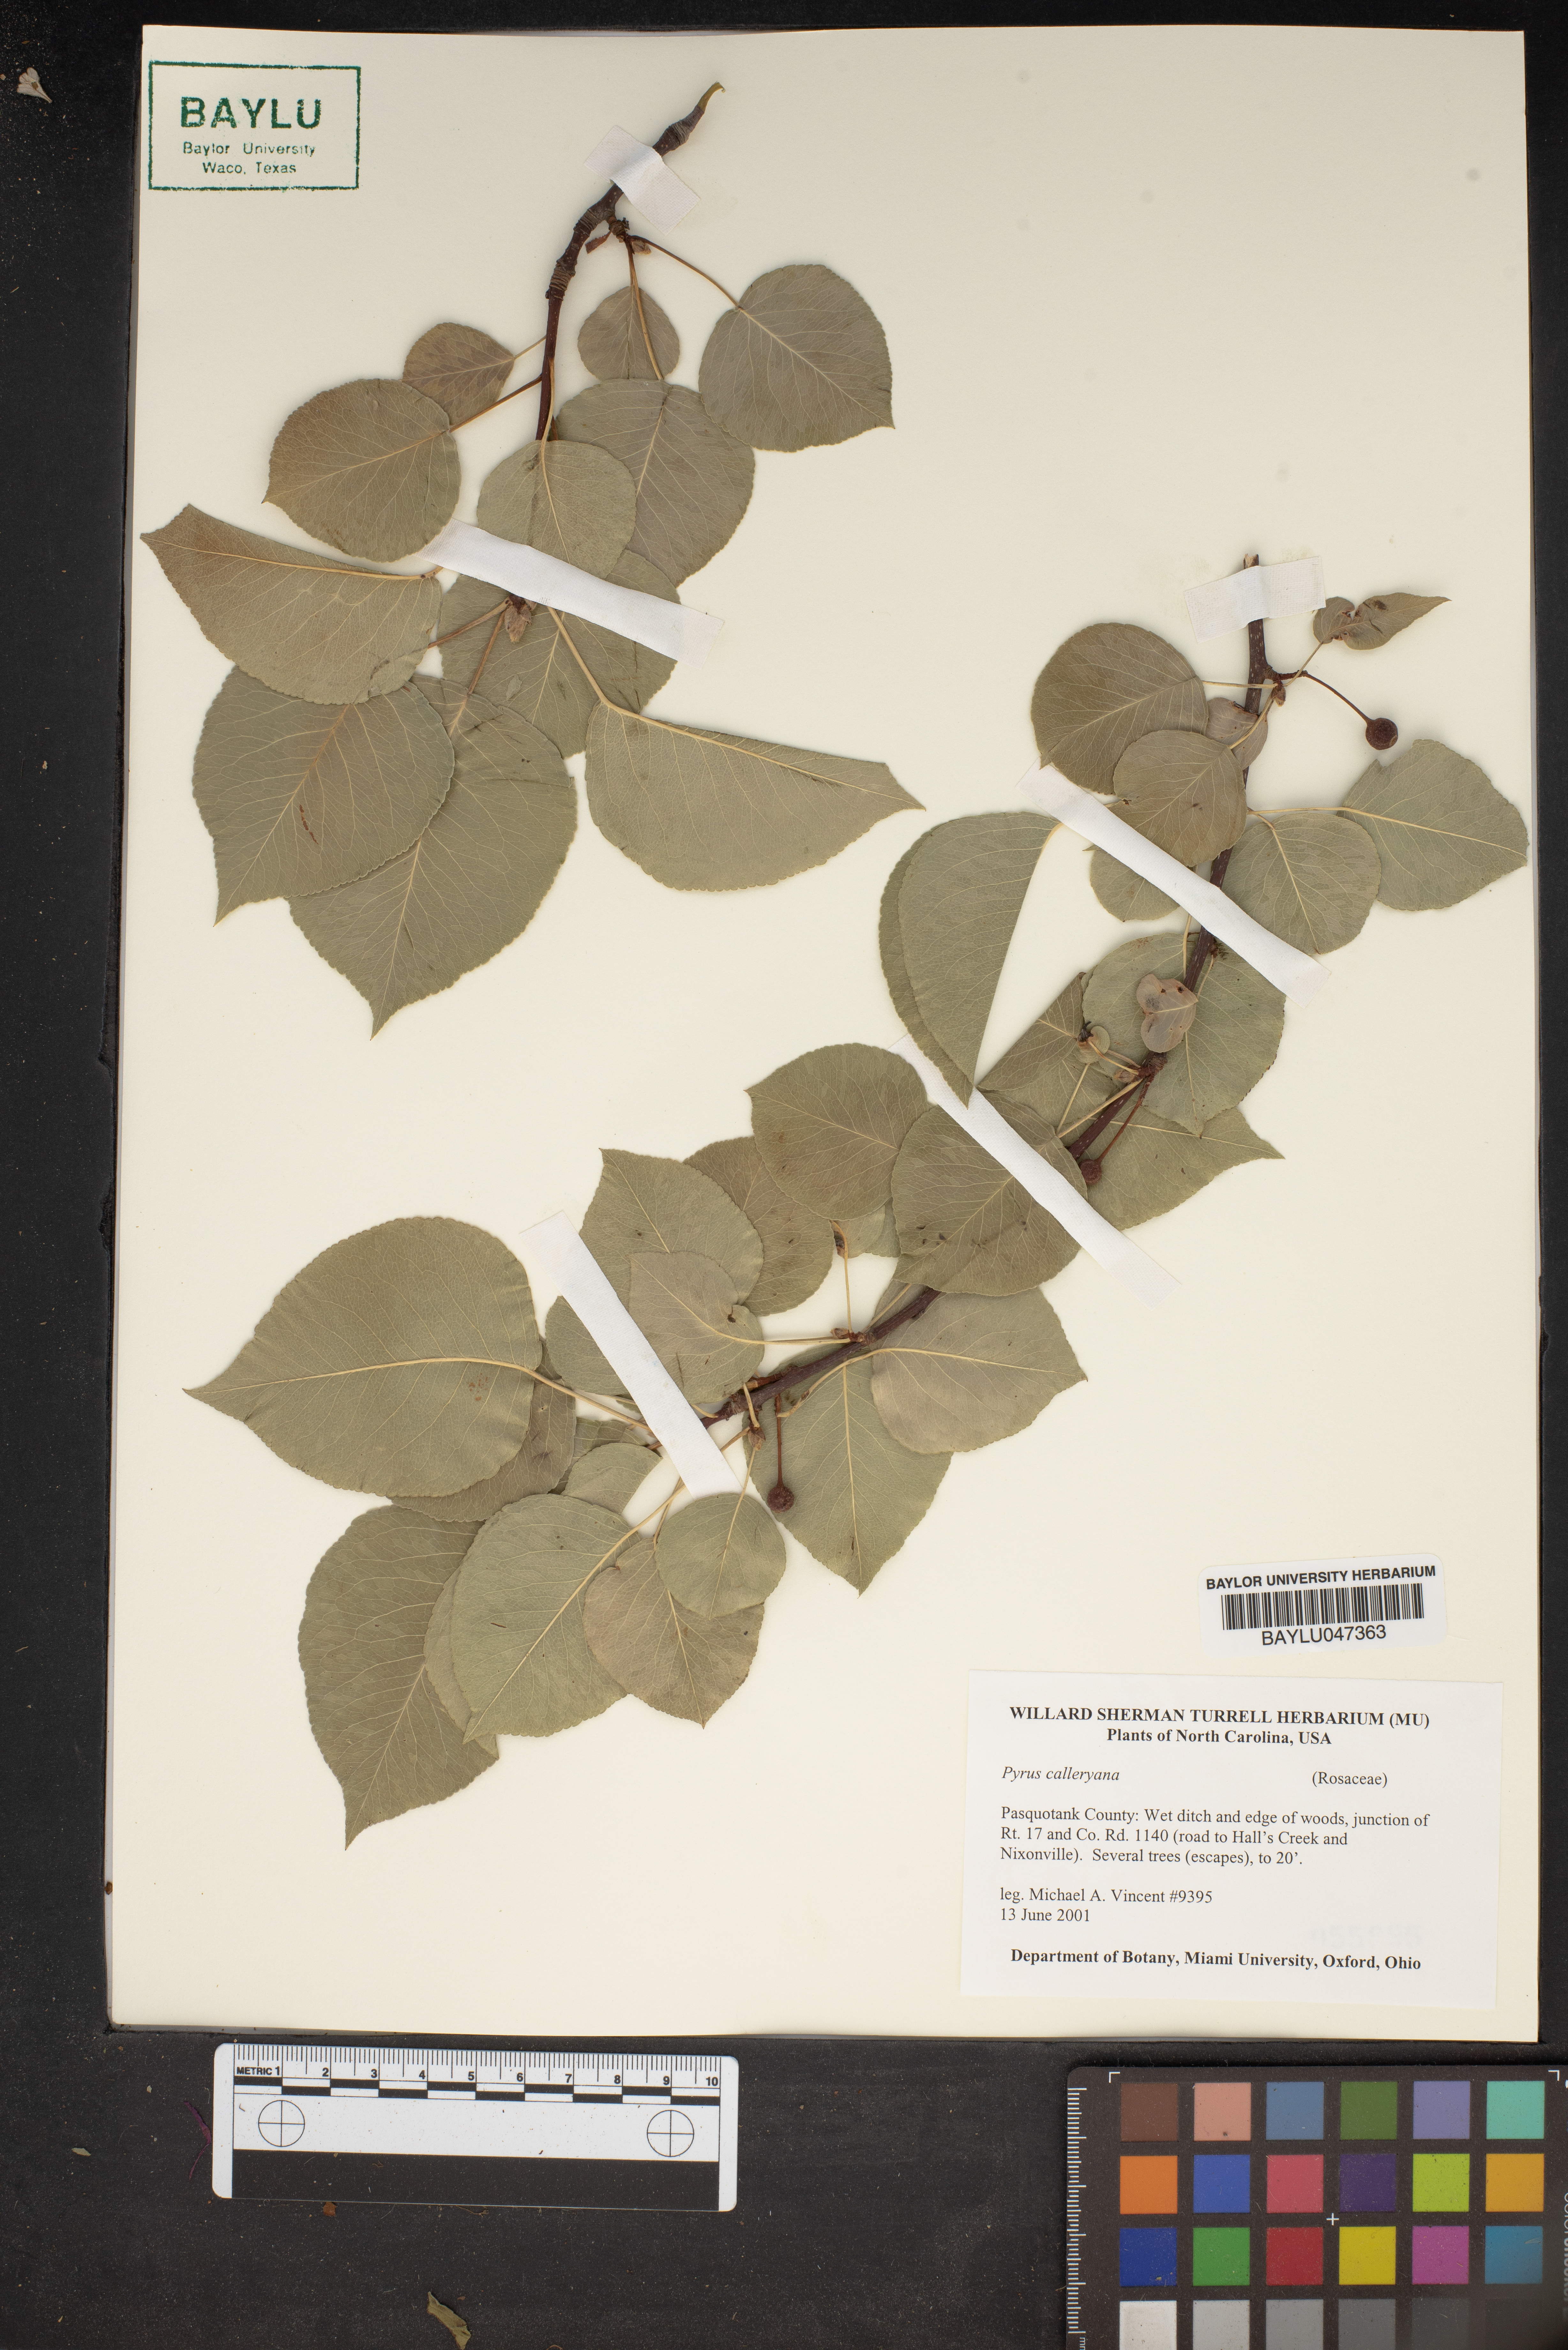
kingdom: Plantae
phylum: Tracheophyta
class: Magnoliopsida
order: Rosales
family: Rosaceae
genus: Pyrus
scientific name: Pyrus calleryana
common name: Callery pear
